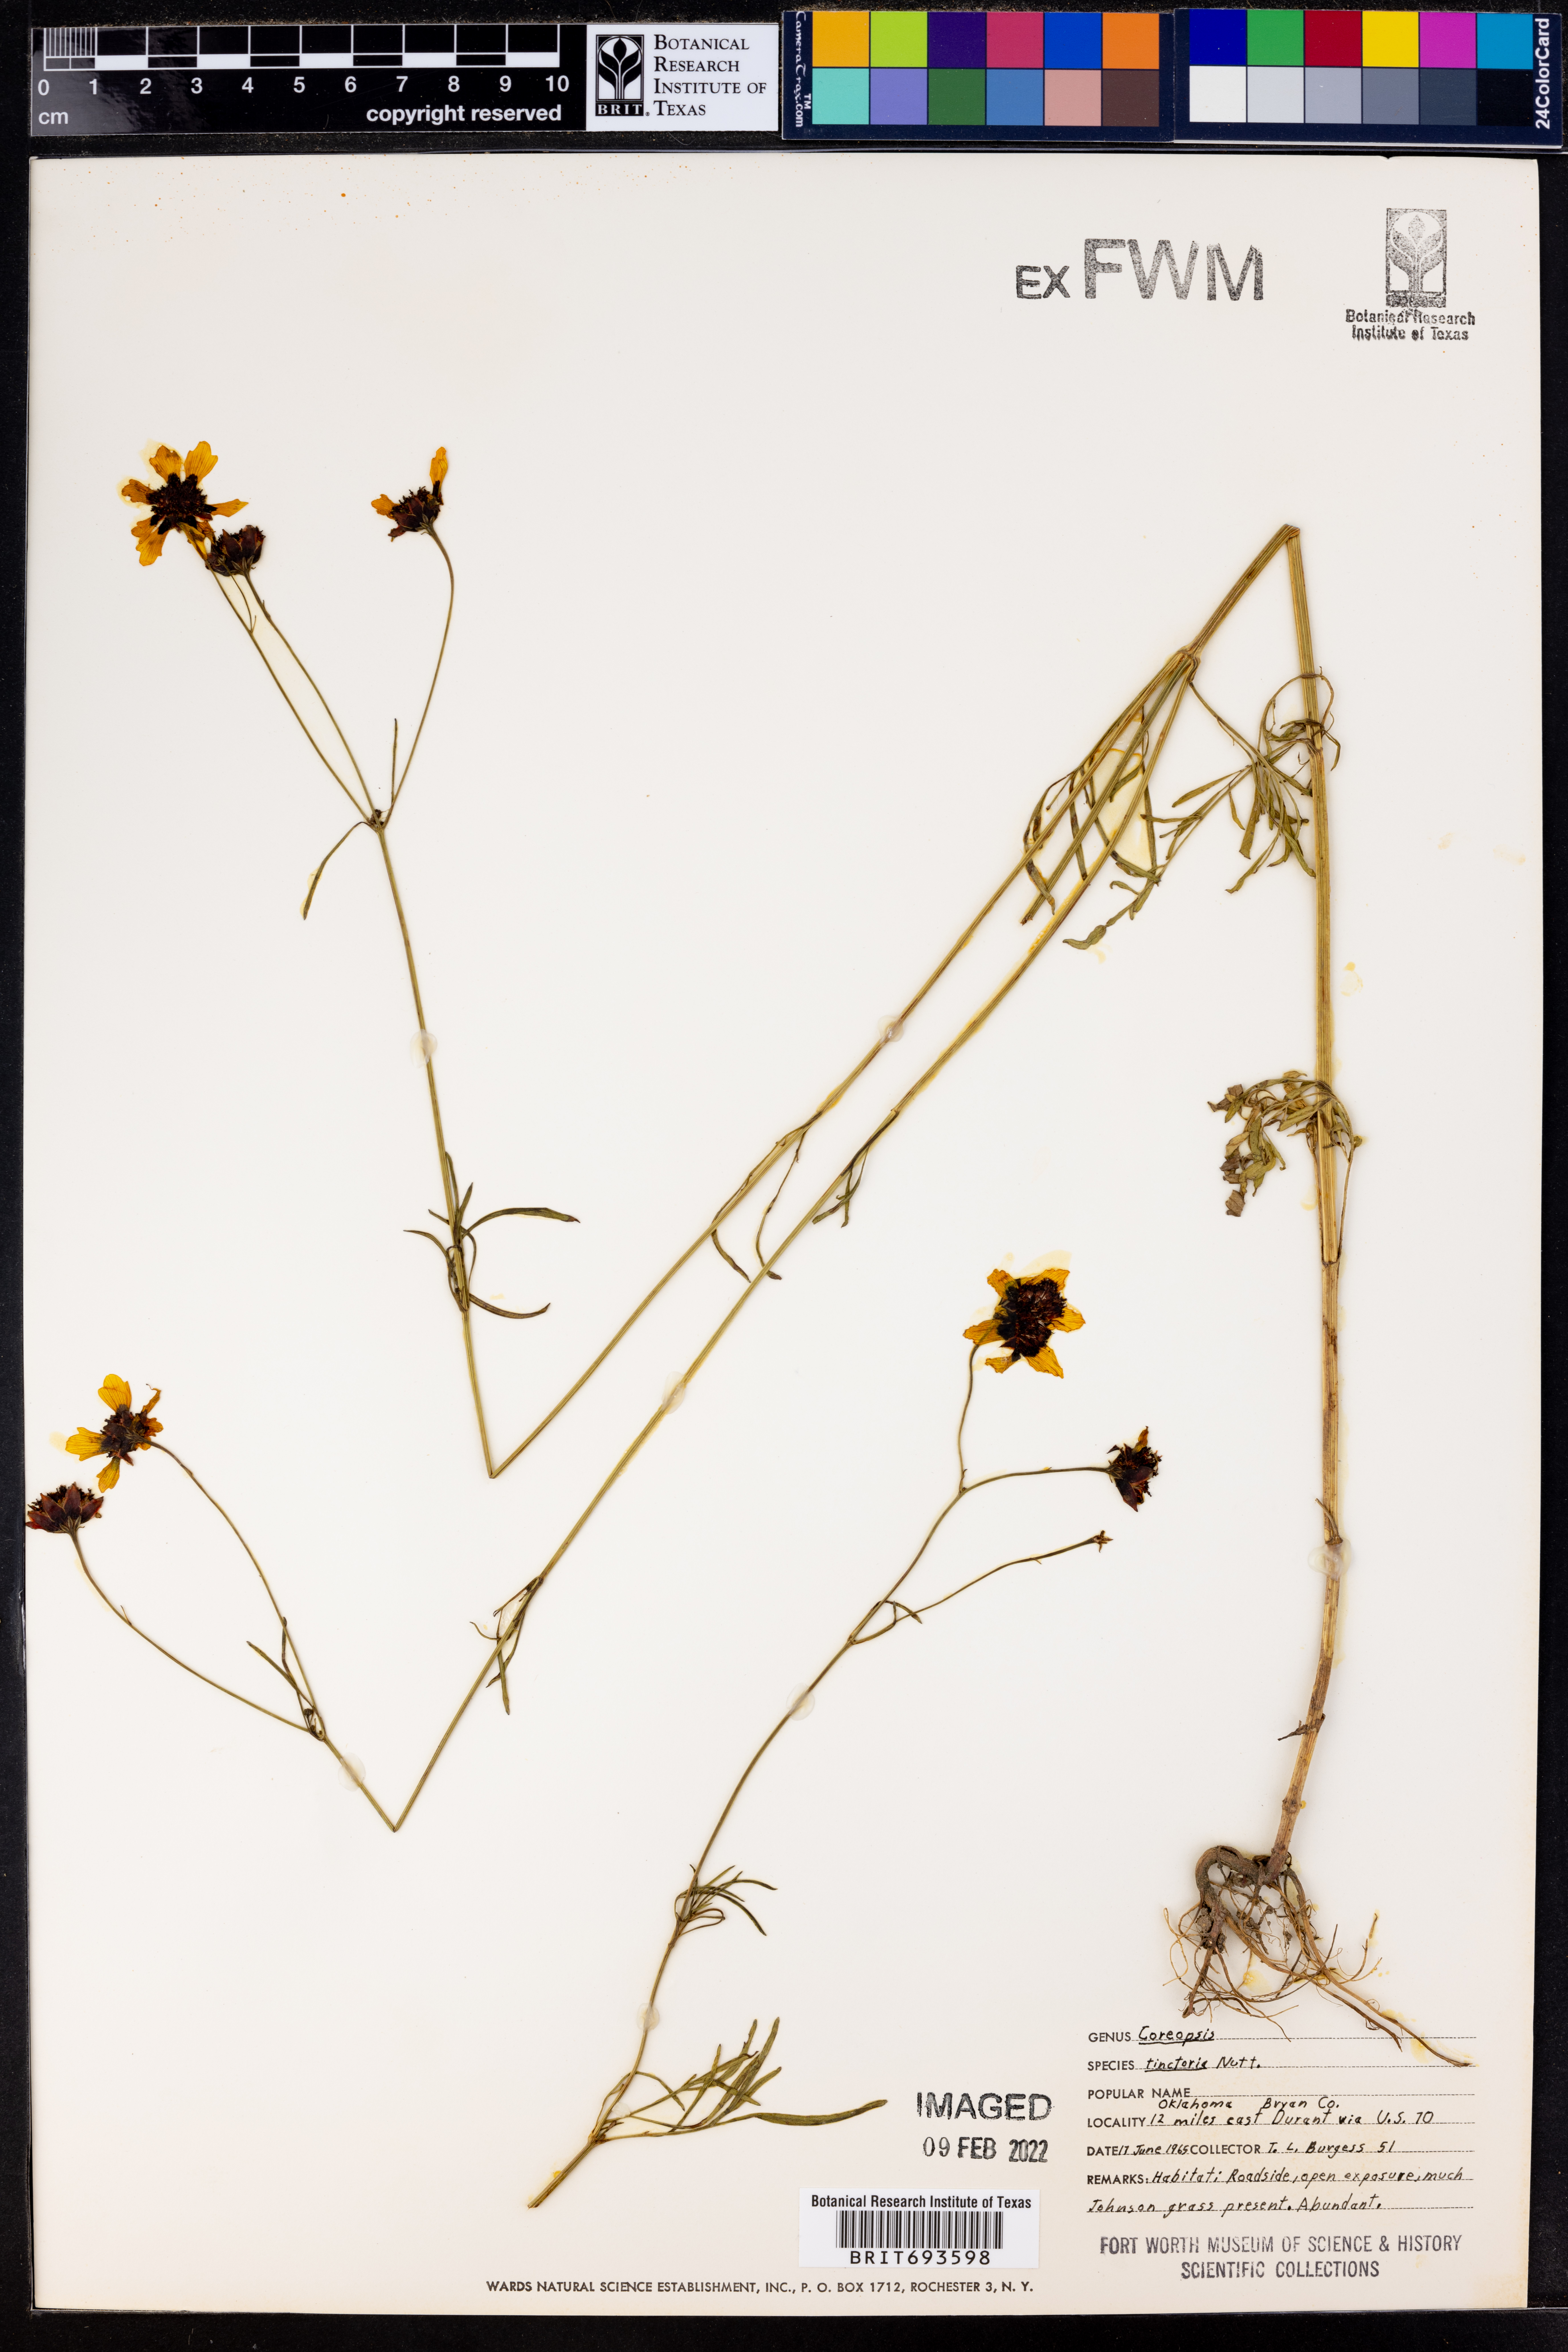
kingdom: Plantae
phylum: Tracheophyta
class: Magnoliopsida
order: Asterales
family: Asteraceae
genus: Coreopsis
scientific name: Coreopsis tinctoria
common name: Garden tickseed
